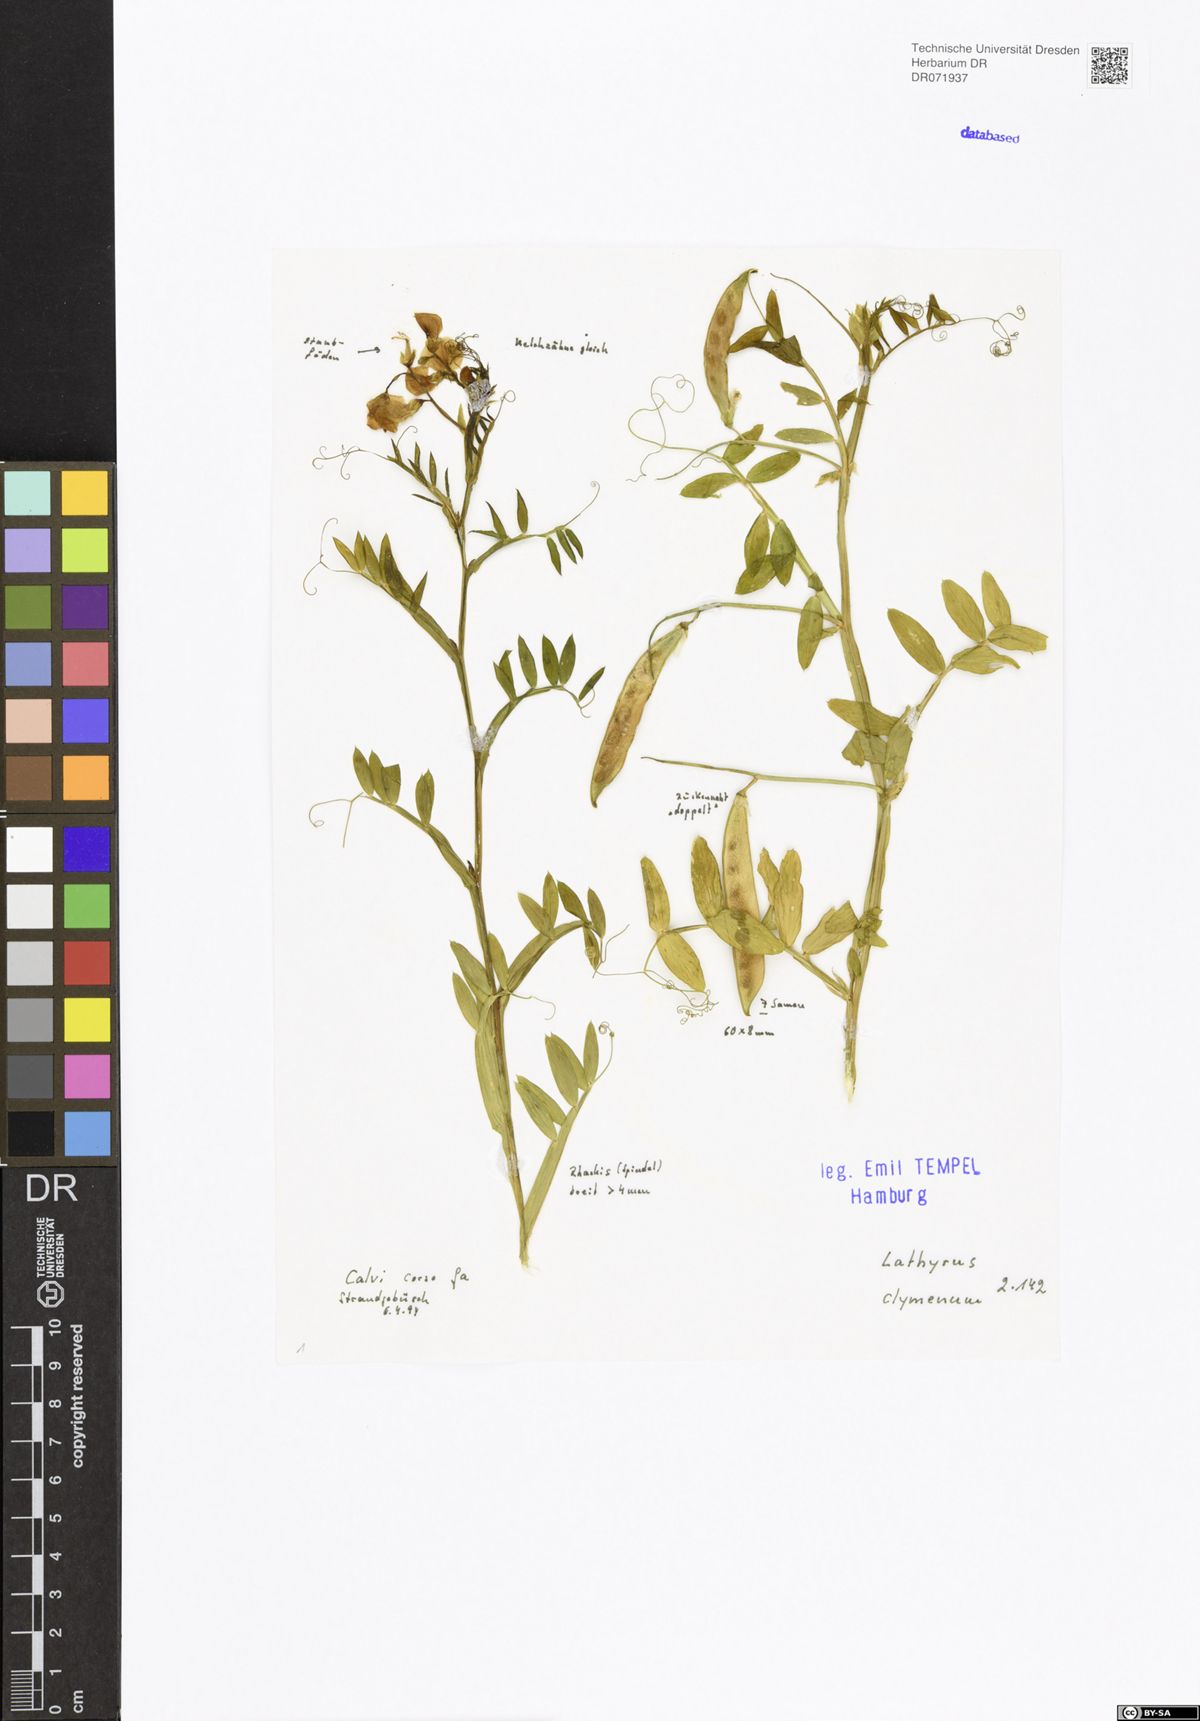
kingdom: Plantae
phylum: Tracheophyta
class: Magnoliopsida
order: Fabales
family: Fabaceae
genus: Lathyrus
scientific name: Lathyrus clymenum
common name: Spanish vetchling
